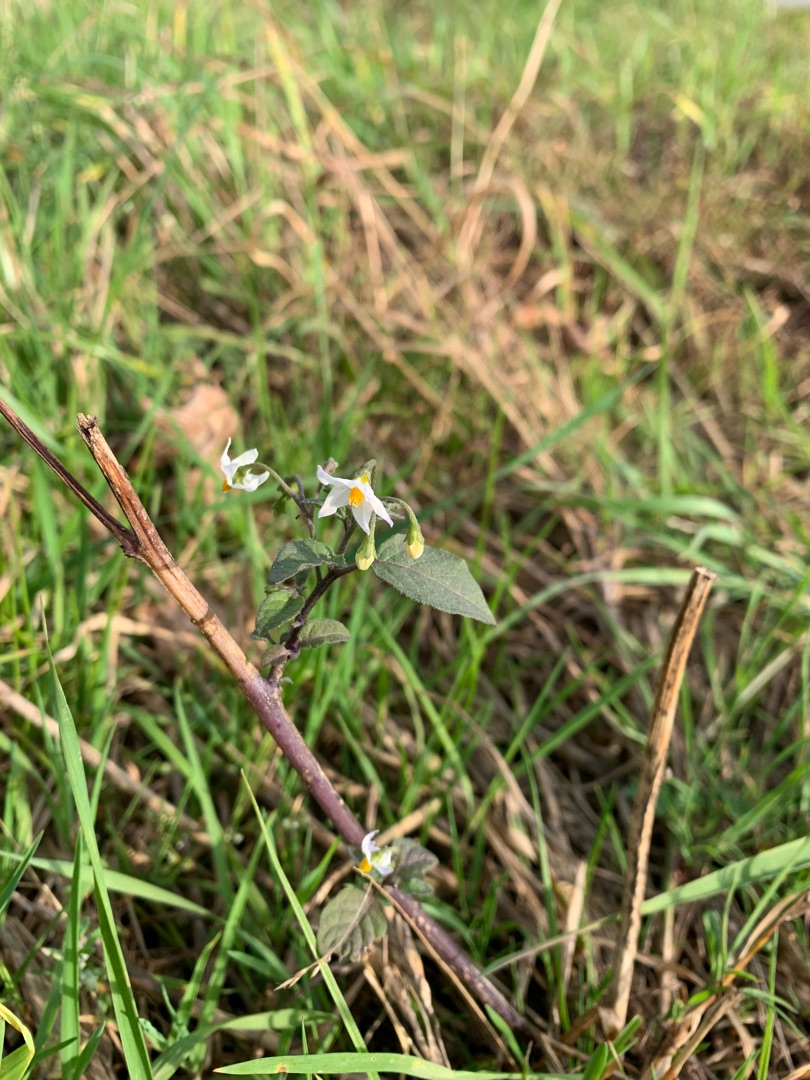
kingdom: Plantae
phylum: Tracheophyta
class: Magnoliopsida
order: Solanales
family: Solanaceae
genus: Solanum
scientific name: Solanum nigrum
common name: Sort natskygge
